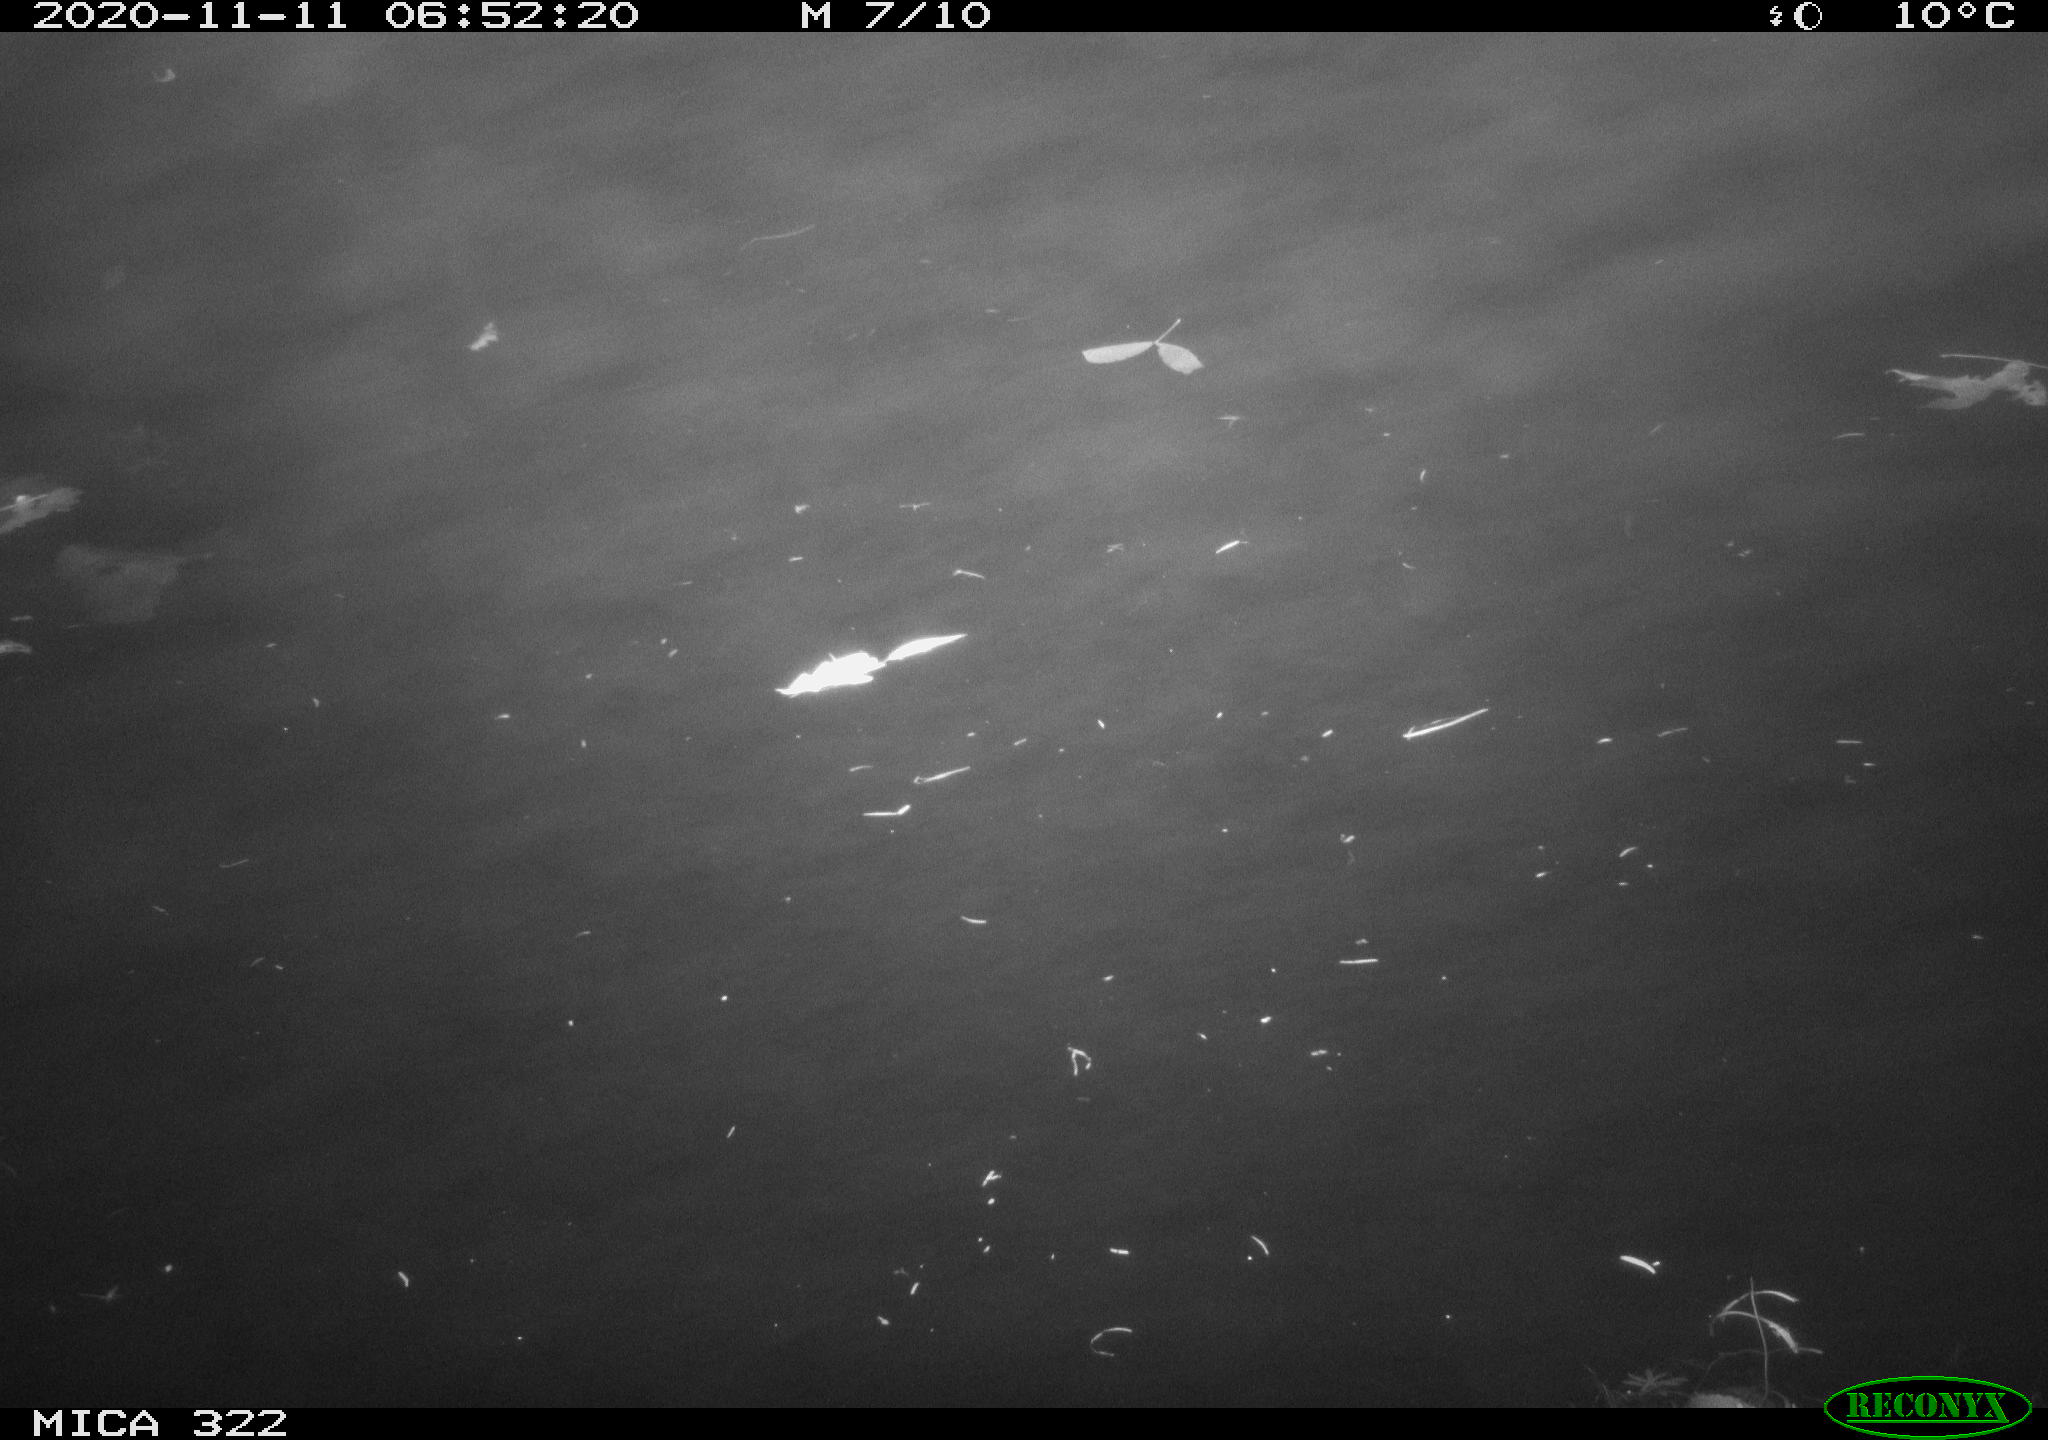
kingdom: Animalia
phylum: Chordata
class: Aves
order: Anseriformes
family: Anatidae
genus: Anas
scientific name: Anas platyrhynchos
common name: Mallard
